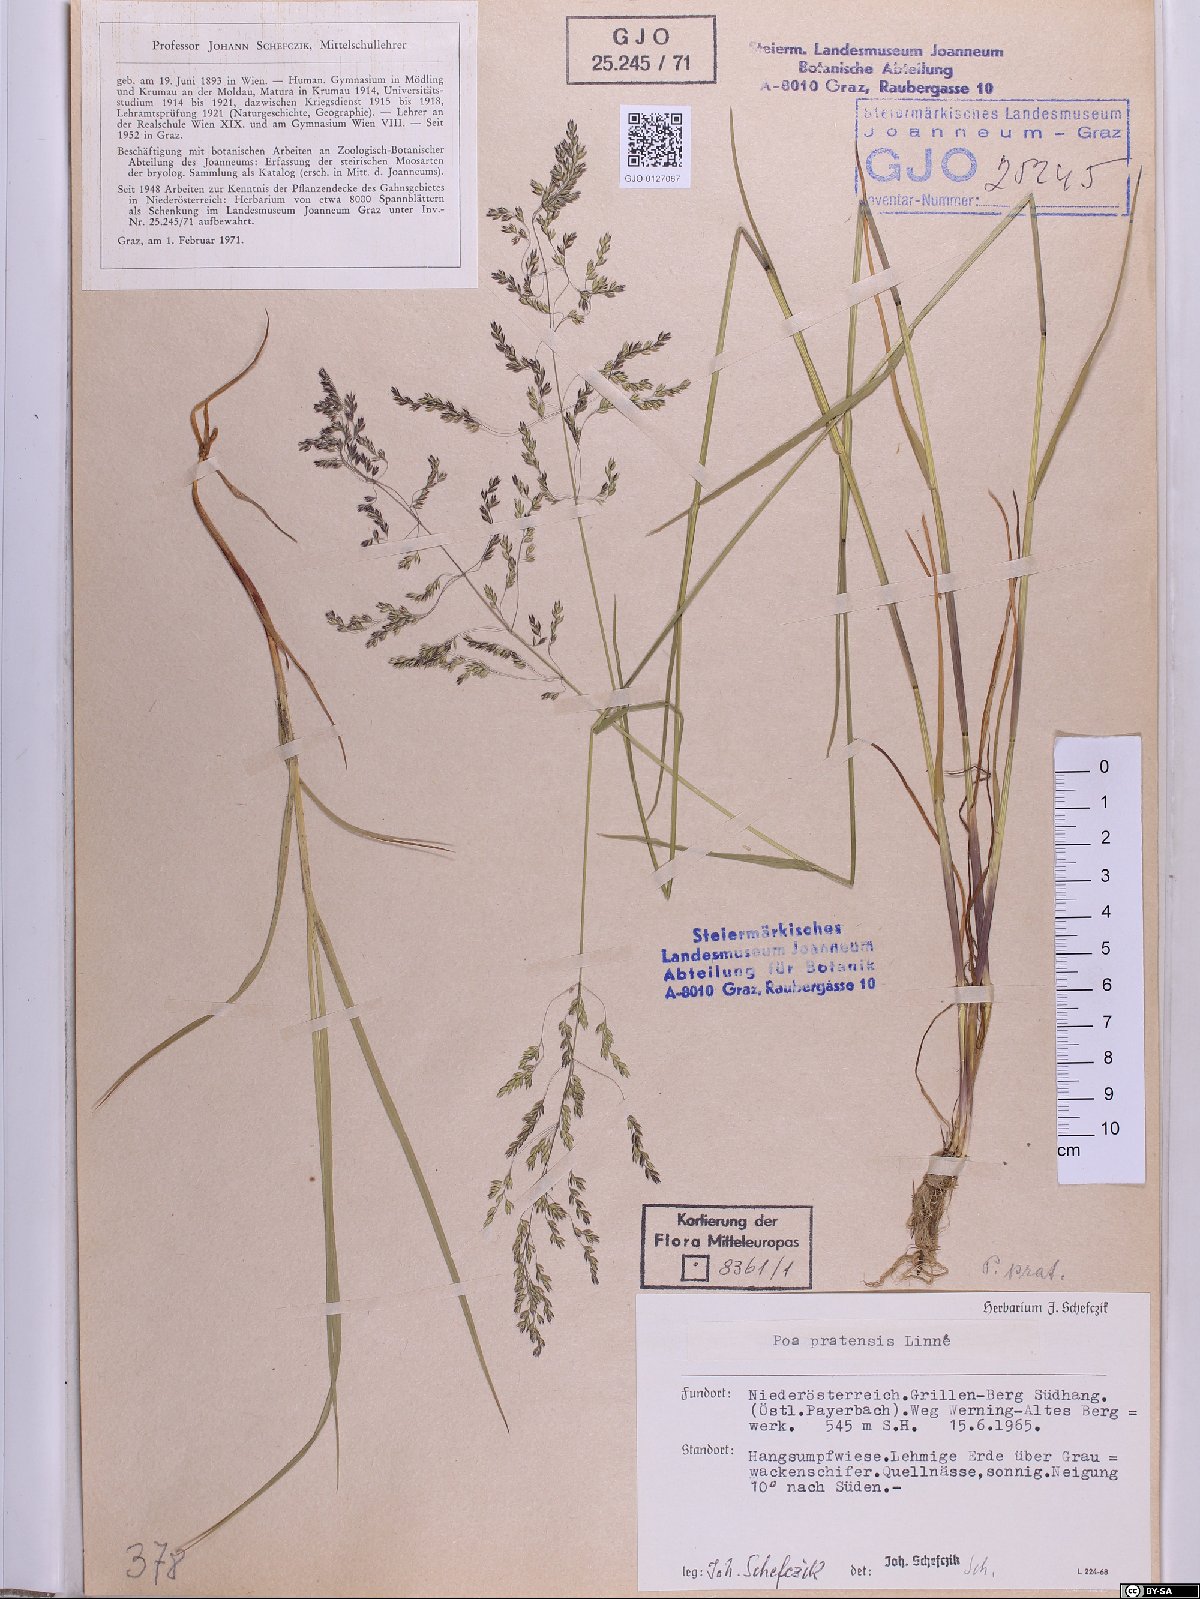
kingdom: Plantae
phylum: Tracheophyta
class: Liliopsida
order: Poales
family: Poaceae
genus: Poa
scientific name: Poa pratensis
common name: Kentucky bluegrass
